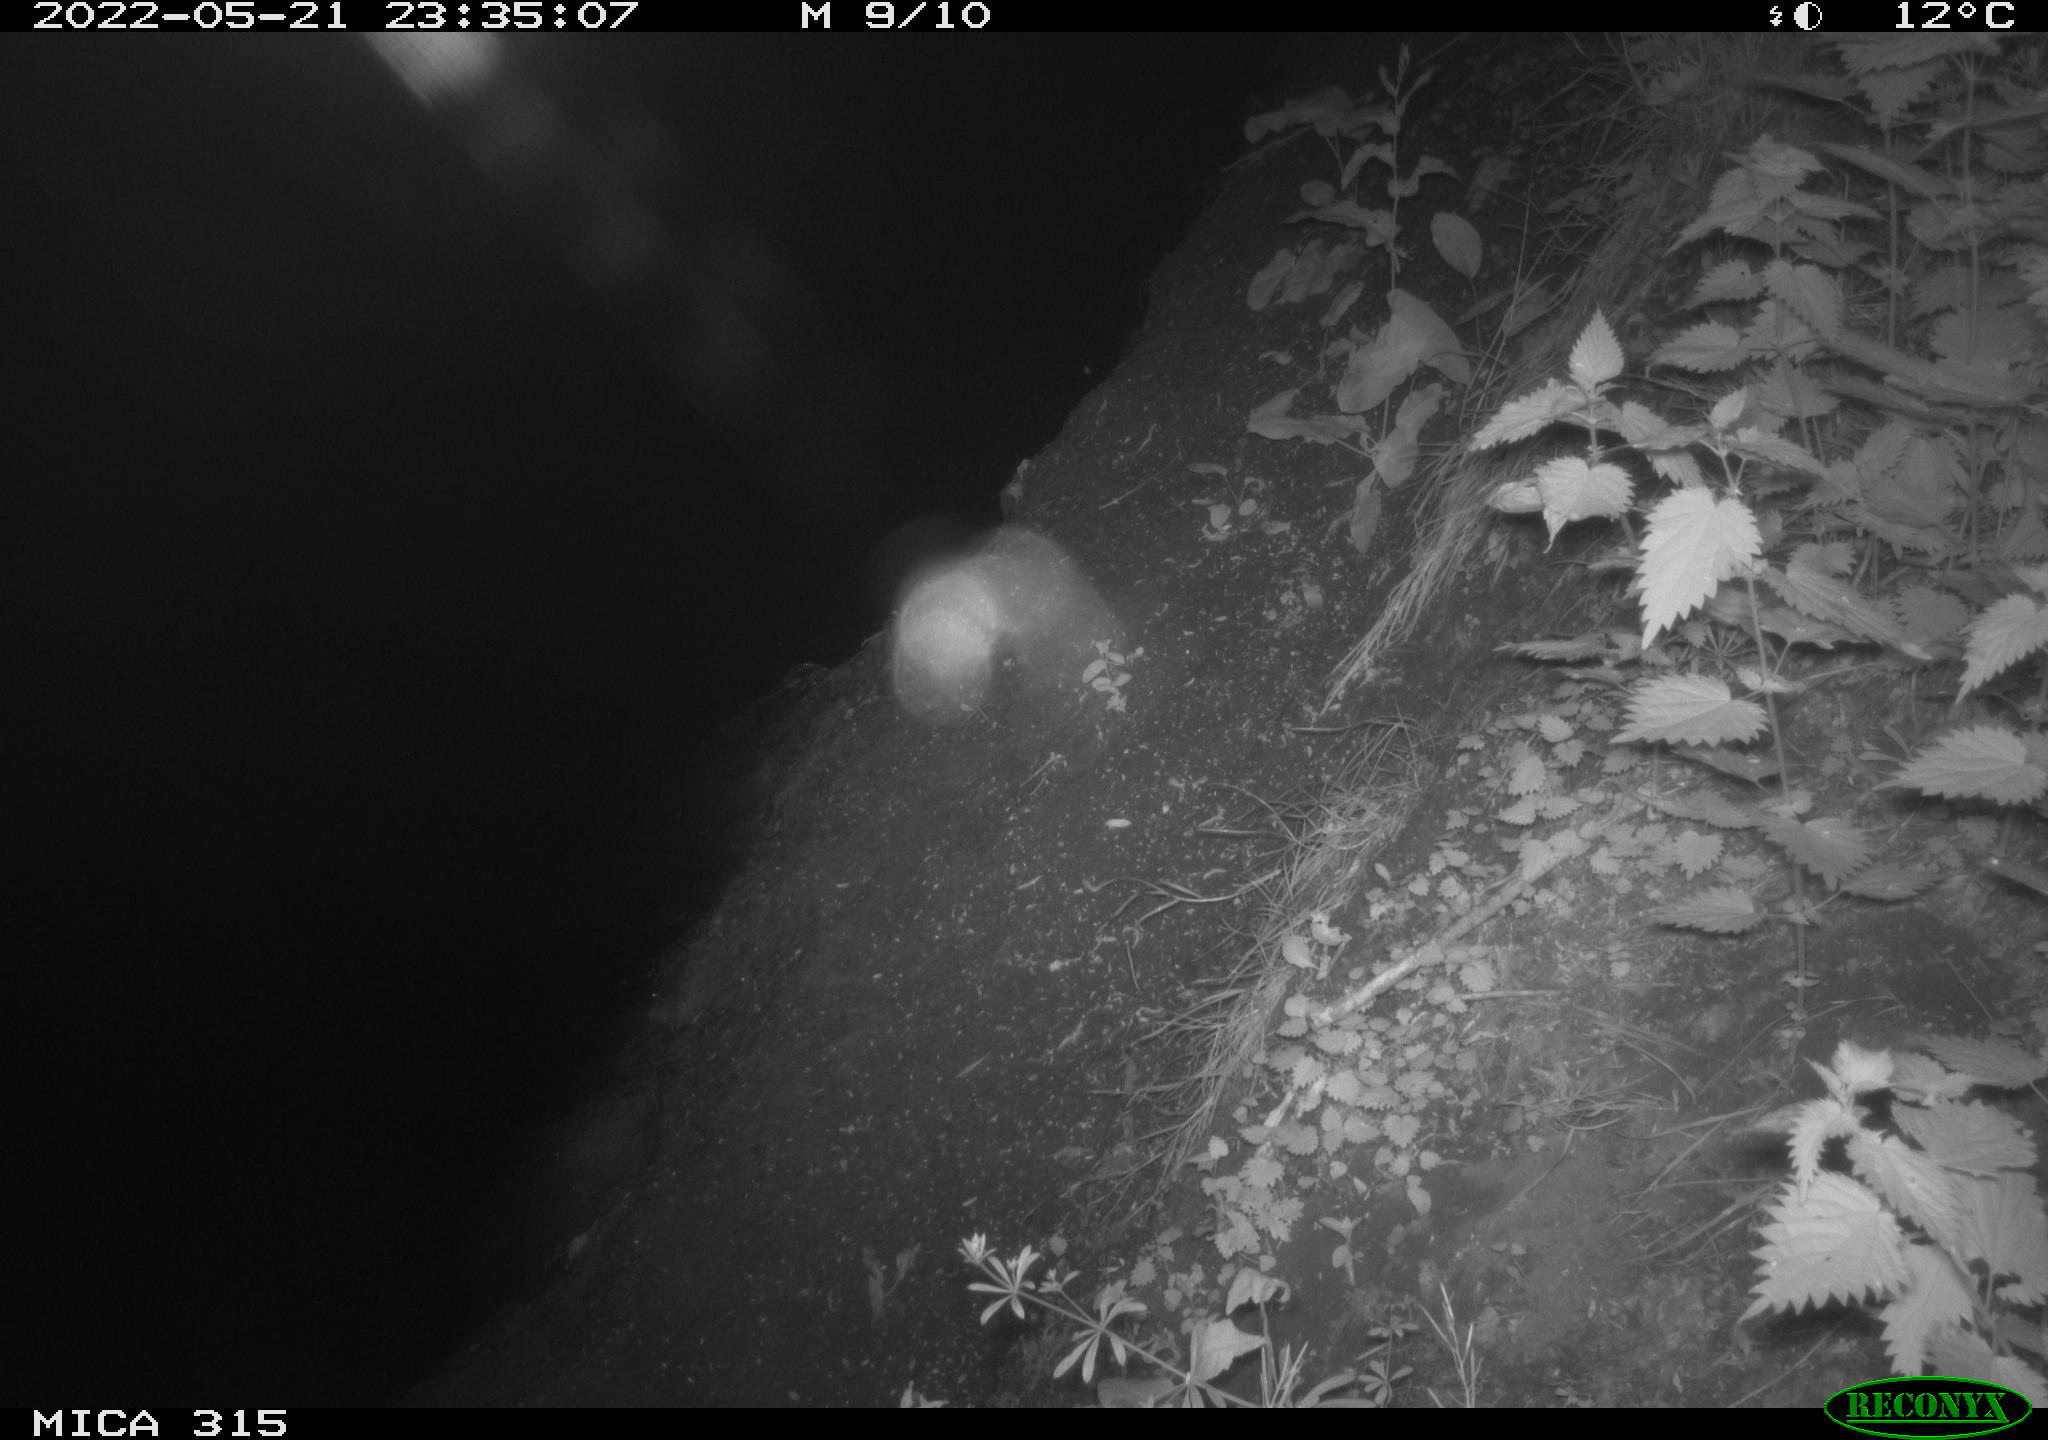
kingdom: Animalia
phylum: Chordata
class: Aves
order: Anseriformes
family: Anatidae
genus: Anas
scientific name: Anas
